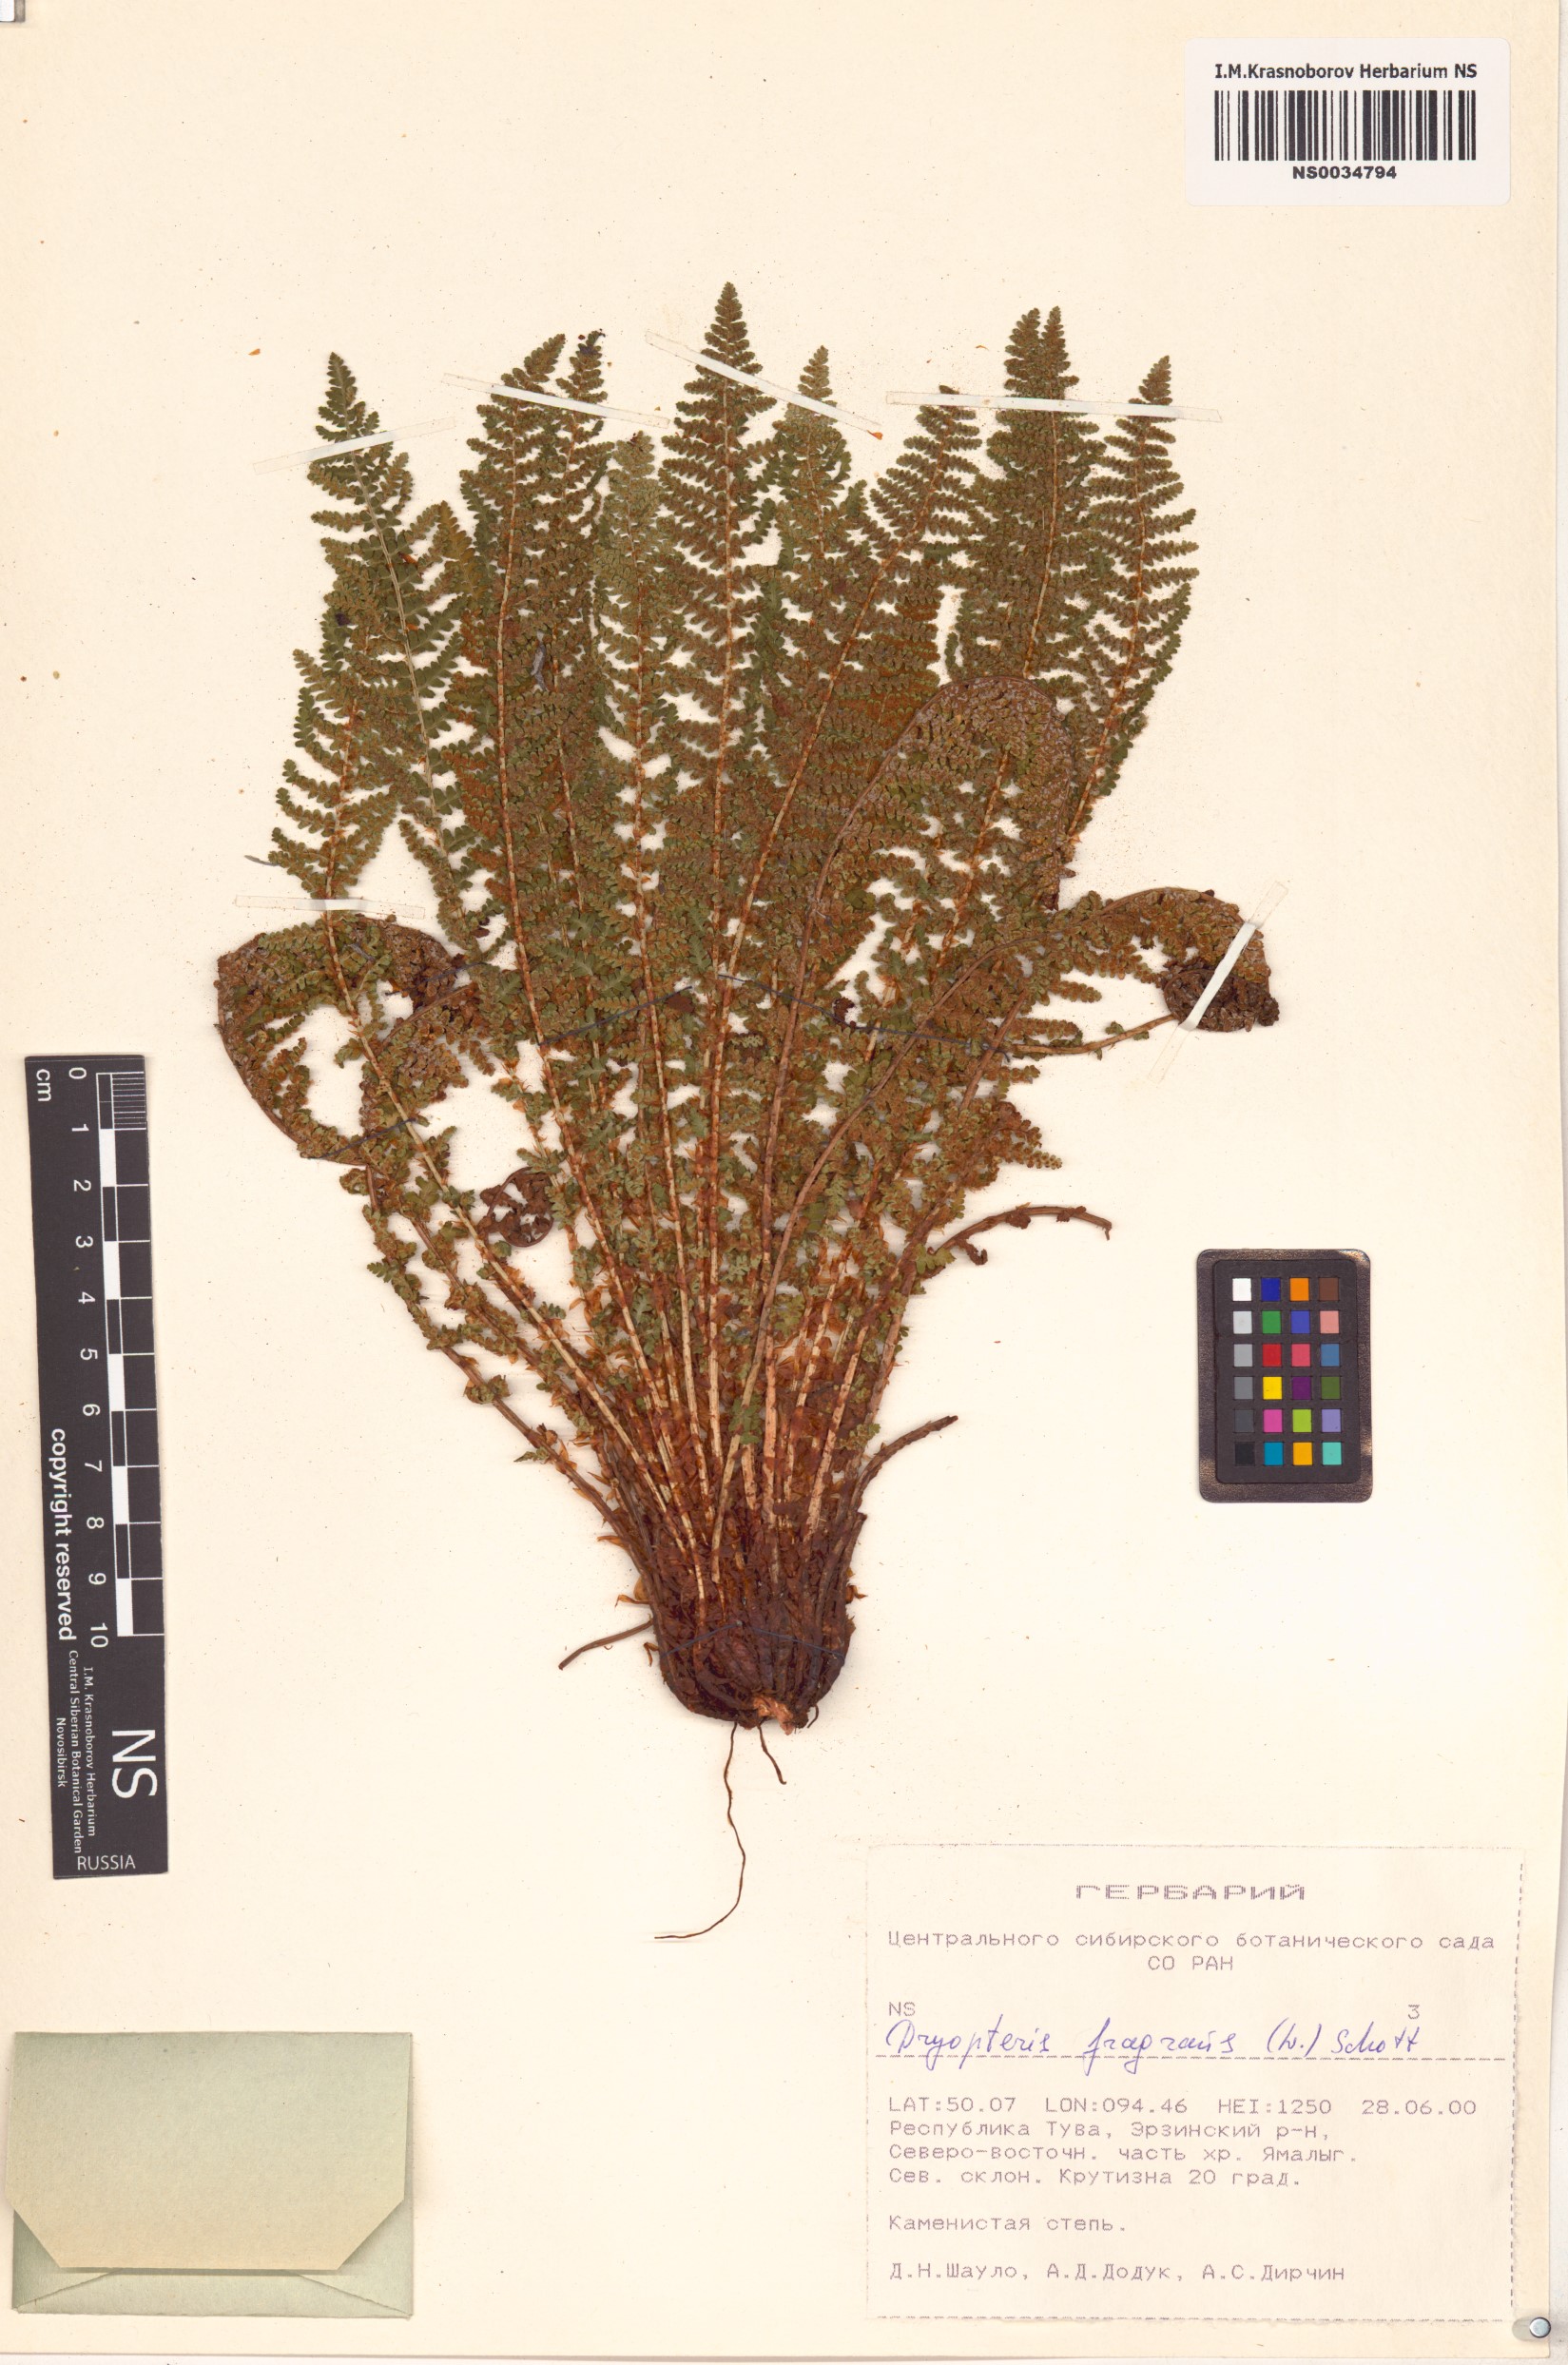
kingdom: Plantae
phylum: Tracheophyta
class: Polypodiopsida
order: Polypodiales
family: Dryopteridaceae
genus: Dryopteris
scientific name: Dryopteris fragrans
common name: Fragrant wood fern
